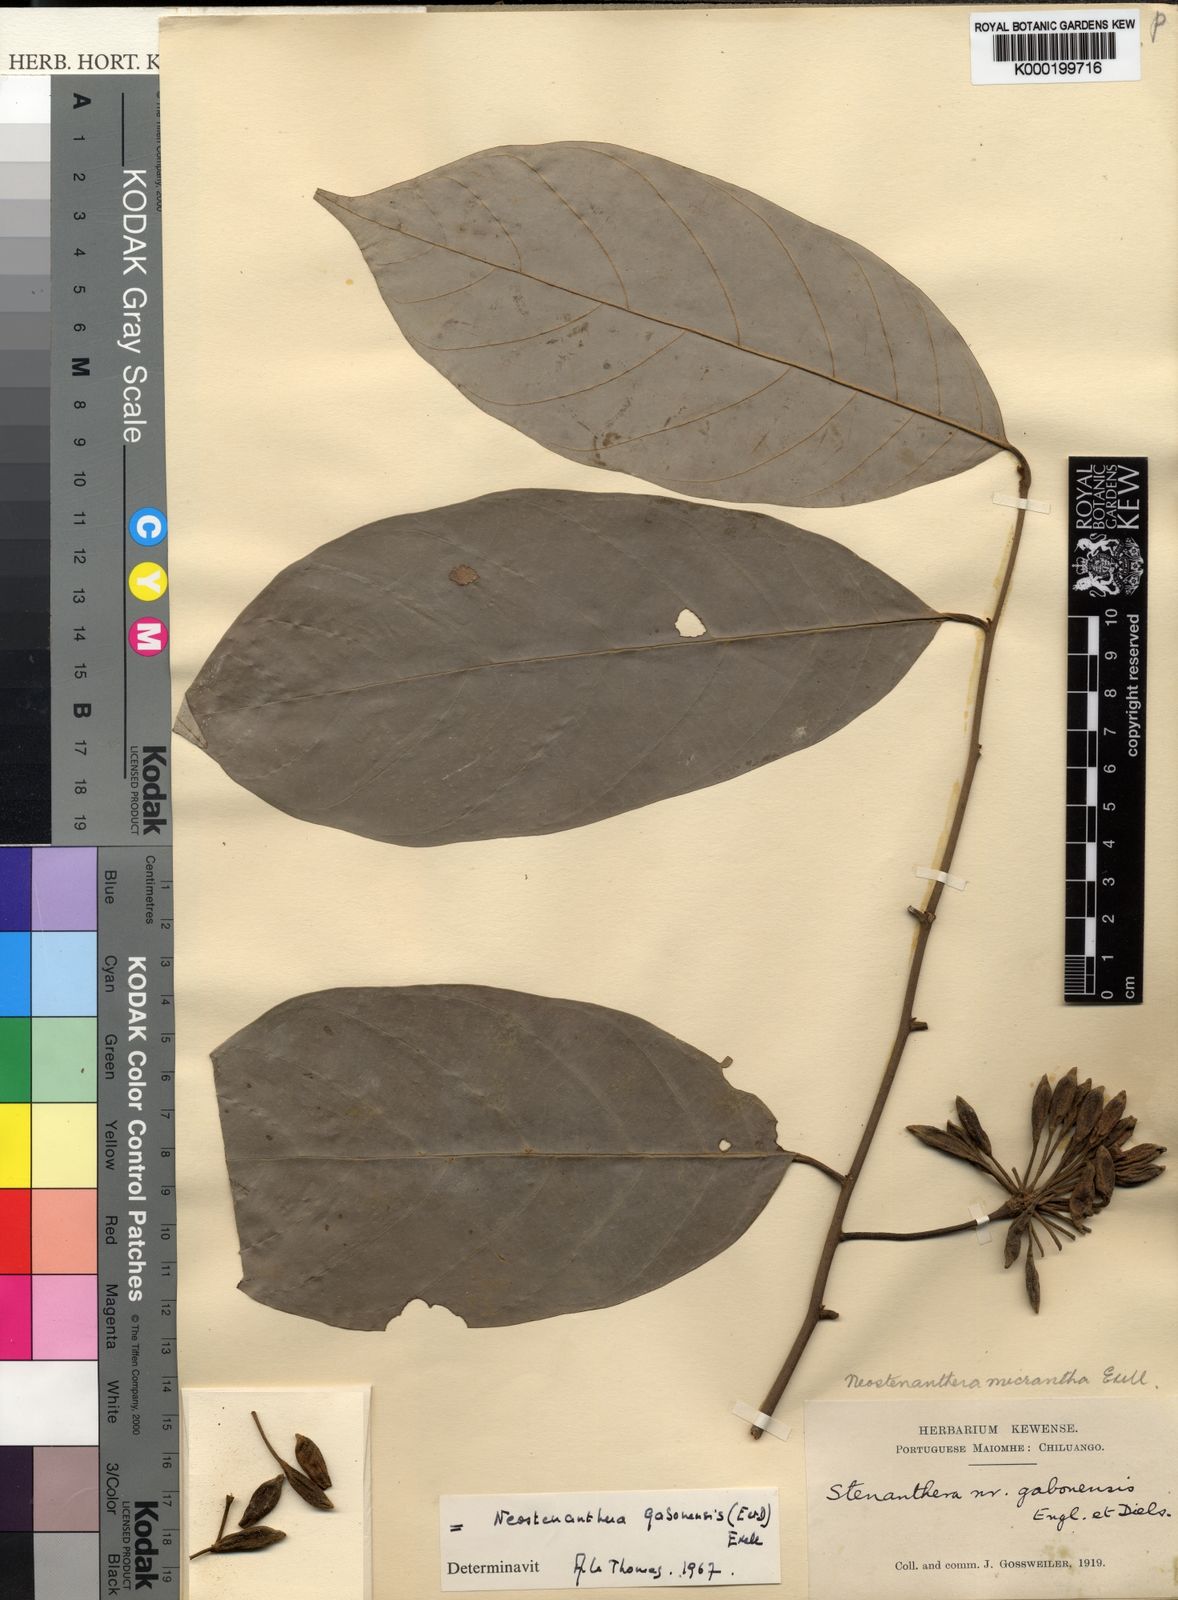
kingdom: Plantae
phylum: Tracheophyta
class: Magnoliopsida
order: Magnoliales
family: Annonaceae
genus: Neostenanthera
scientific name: Neostenanthera
